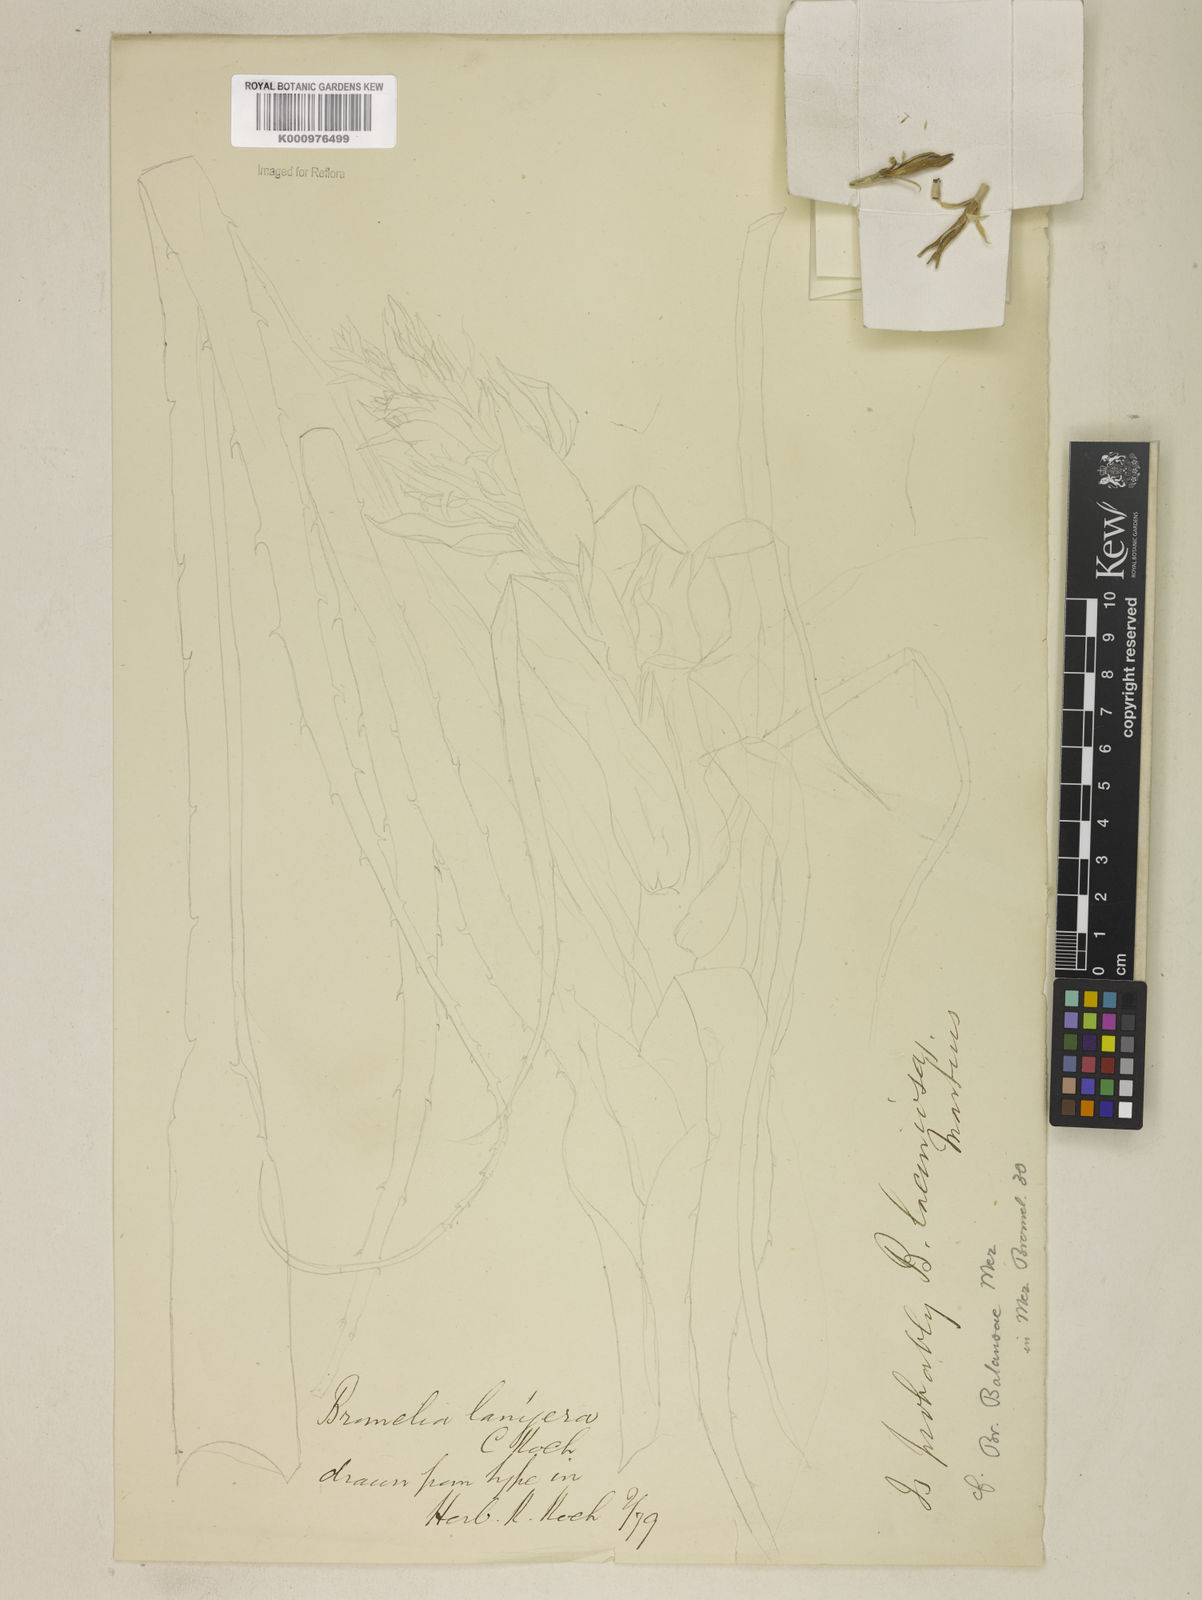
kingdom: Plantae
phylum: Tracheophyta
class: Liliopsida
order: Poales
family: Bromeliaceae
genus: Bromelia
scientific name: Bromelia balansae
